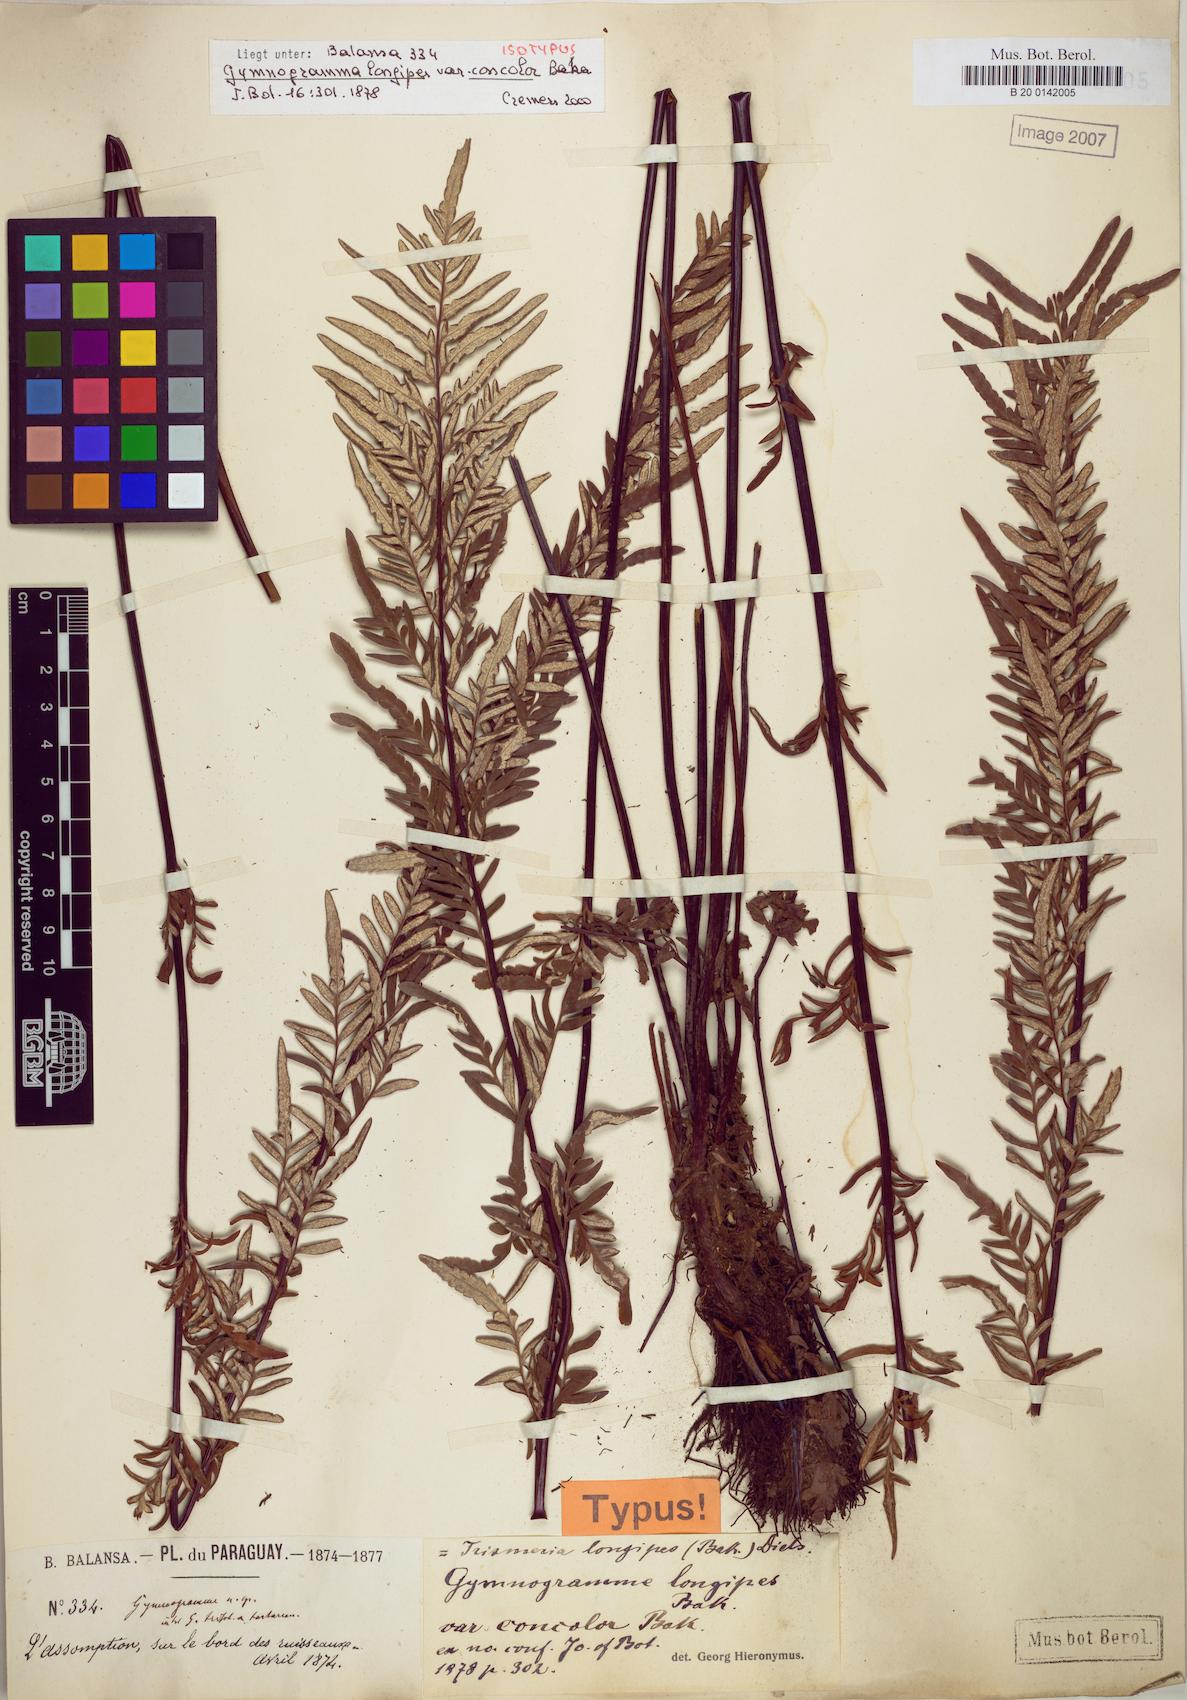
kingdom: Plantae
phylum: Tracheophyta
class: Polypodiopsida
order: Polypodiales
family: Pteridaceae
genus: Pityrogramma
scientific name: Pityrogramma longipes
